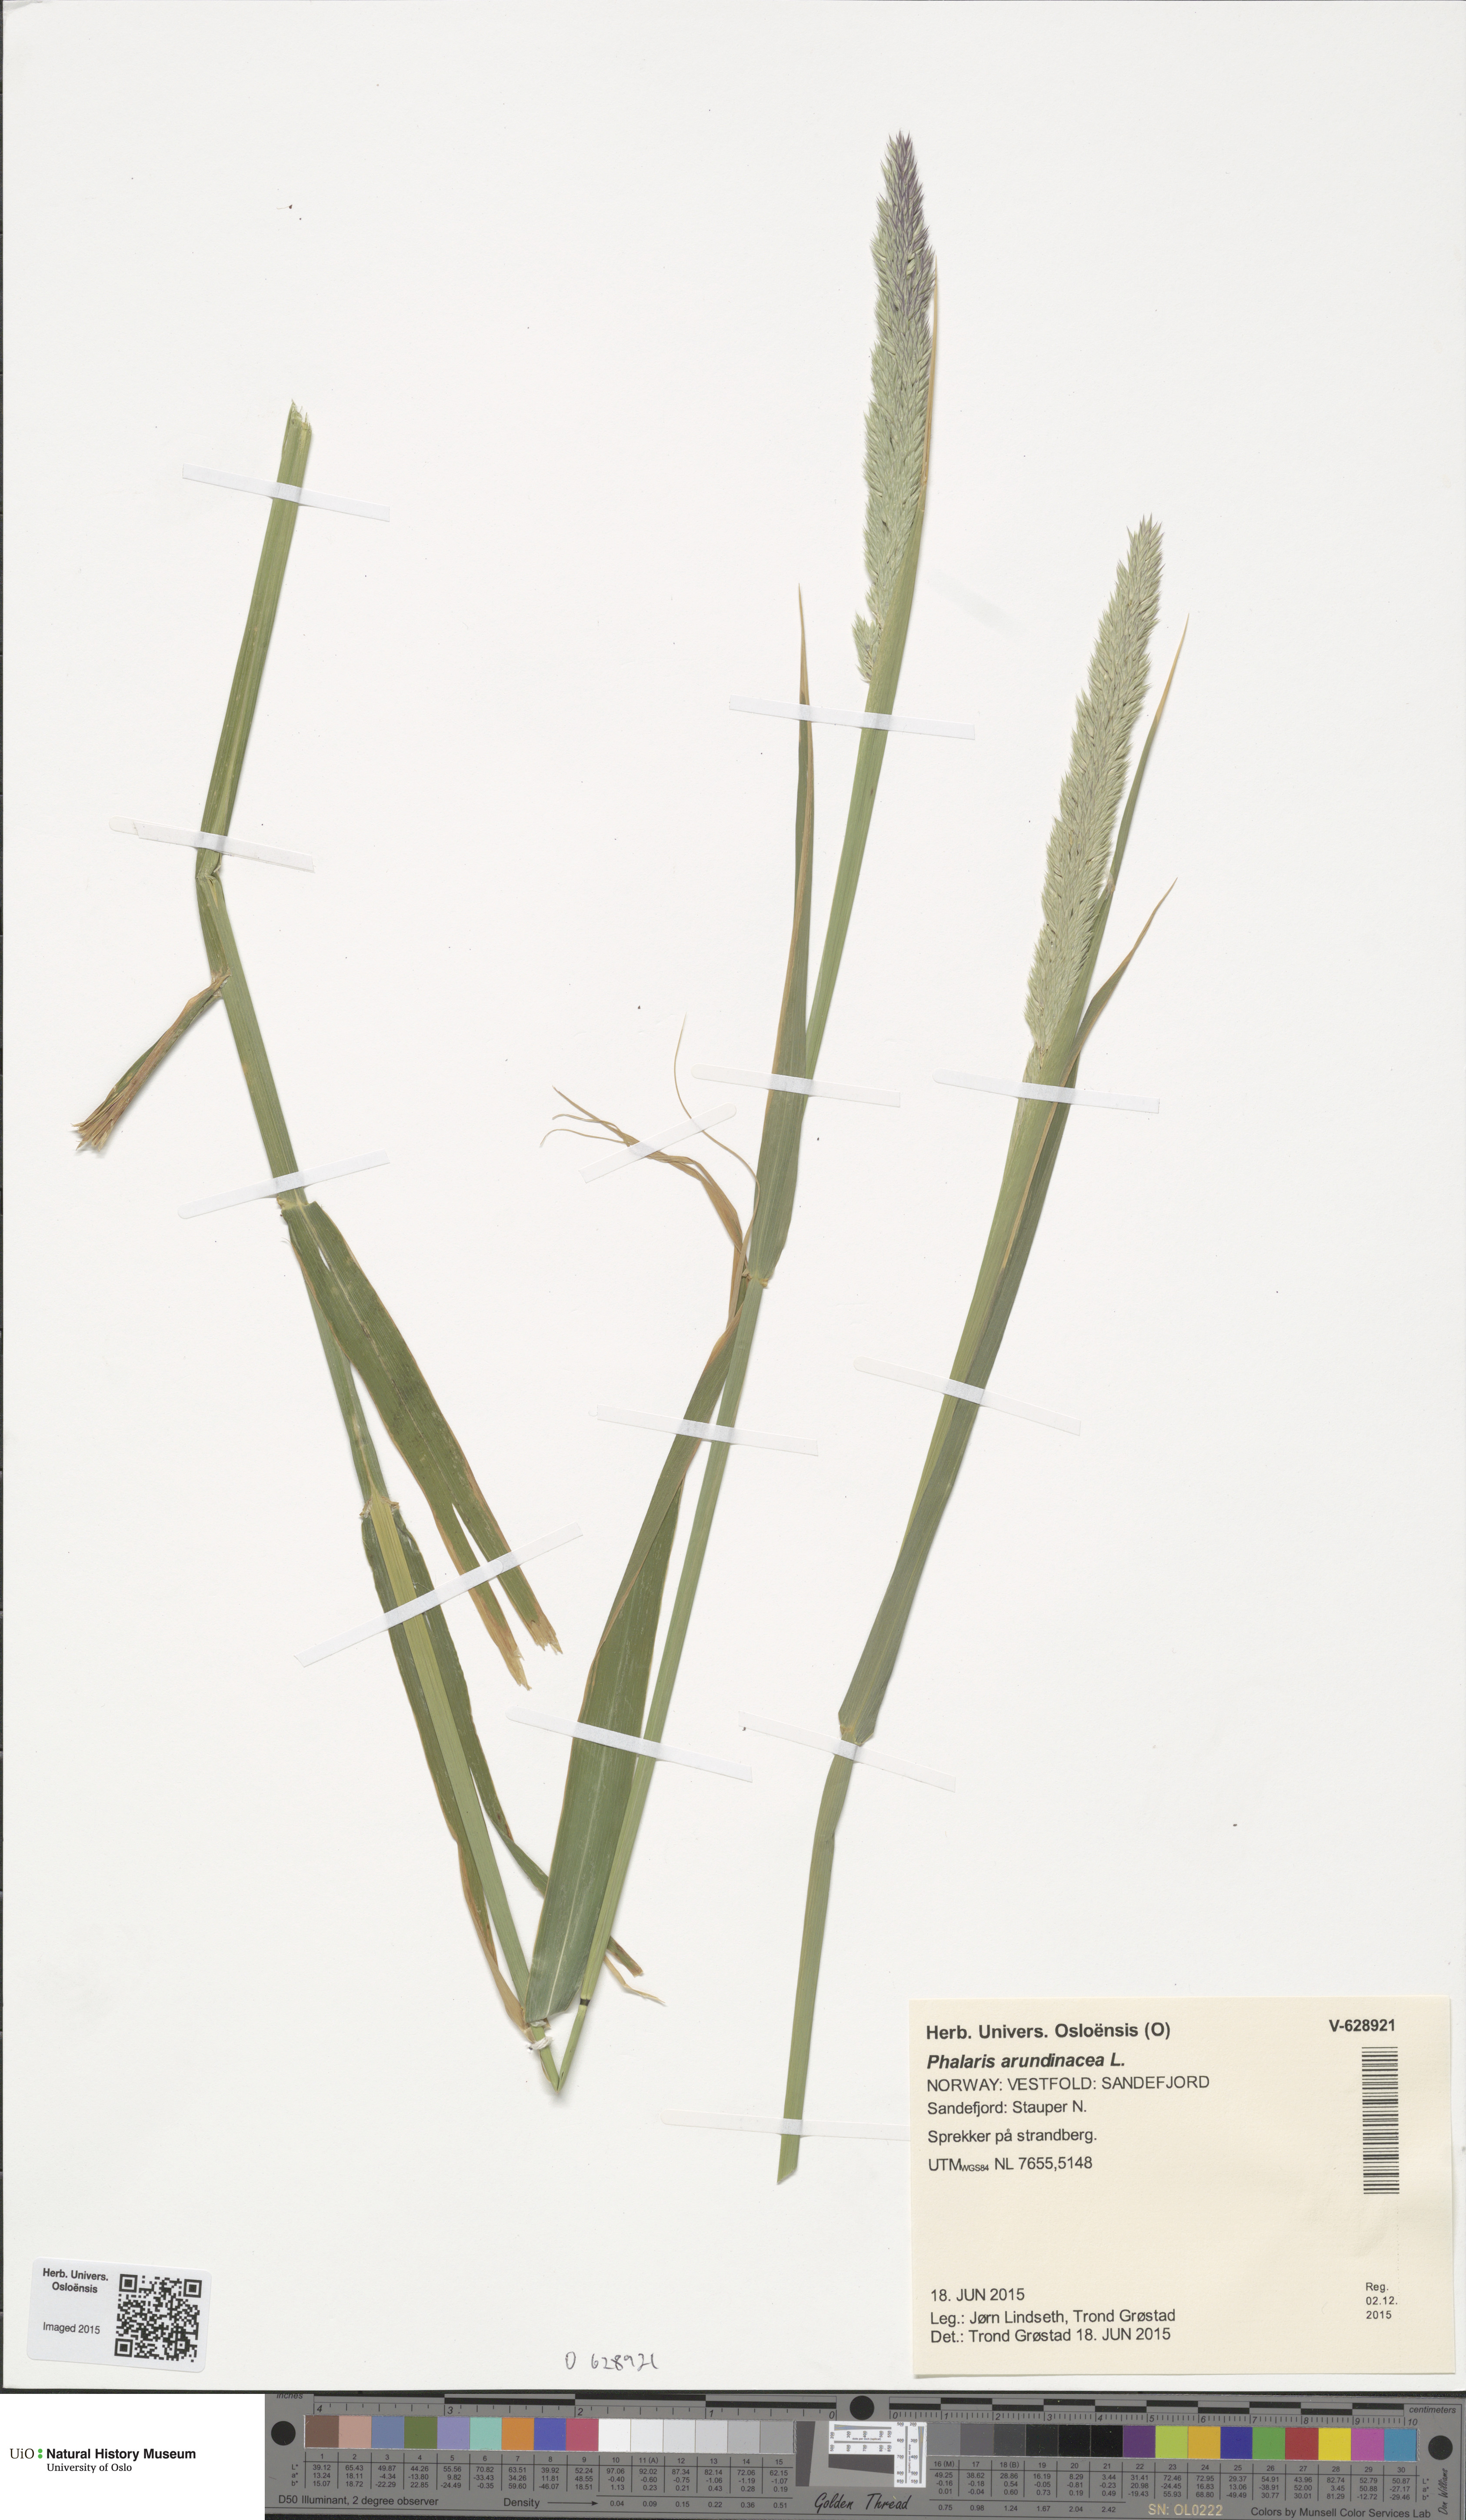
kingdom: Plantae
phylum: Tracheophyta
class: Liliopsida
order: Poales
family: Poaceae
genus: Phalaris
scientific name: Phalaris arundinacea
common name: Reed canary-grass
